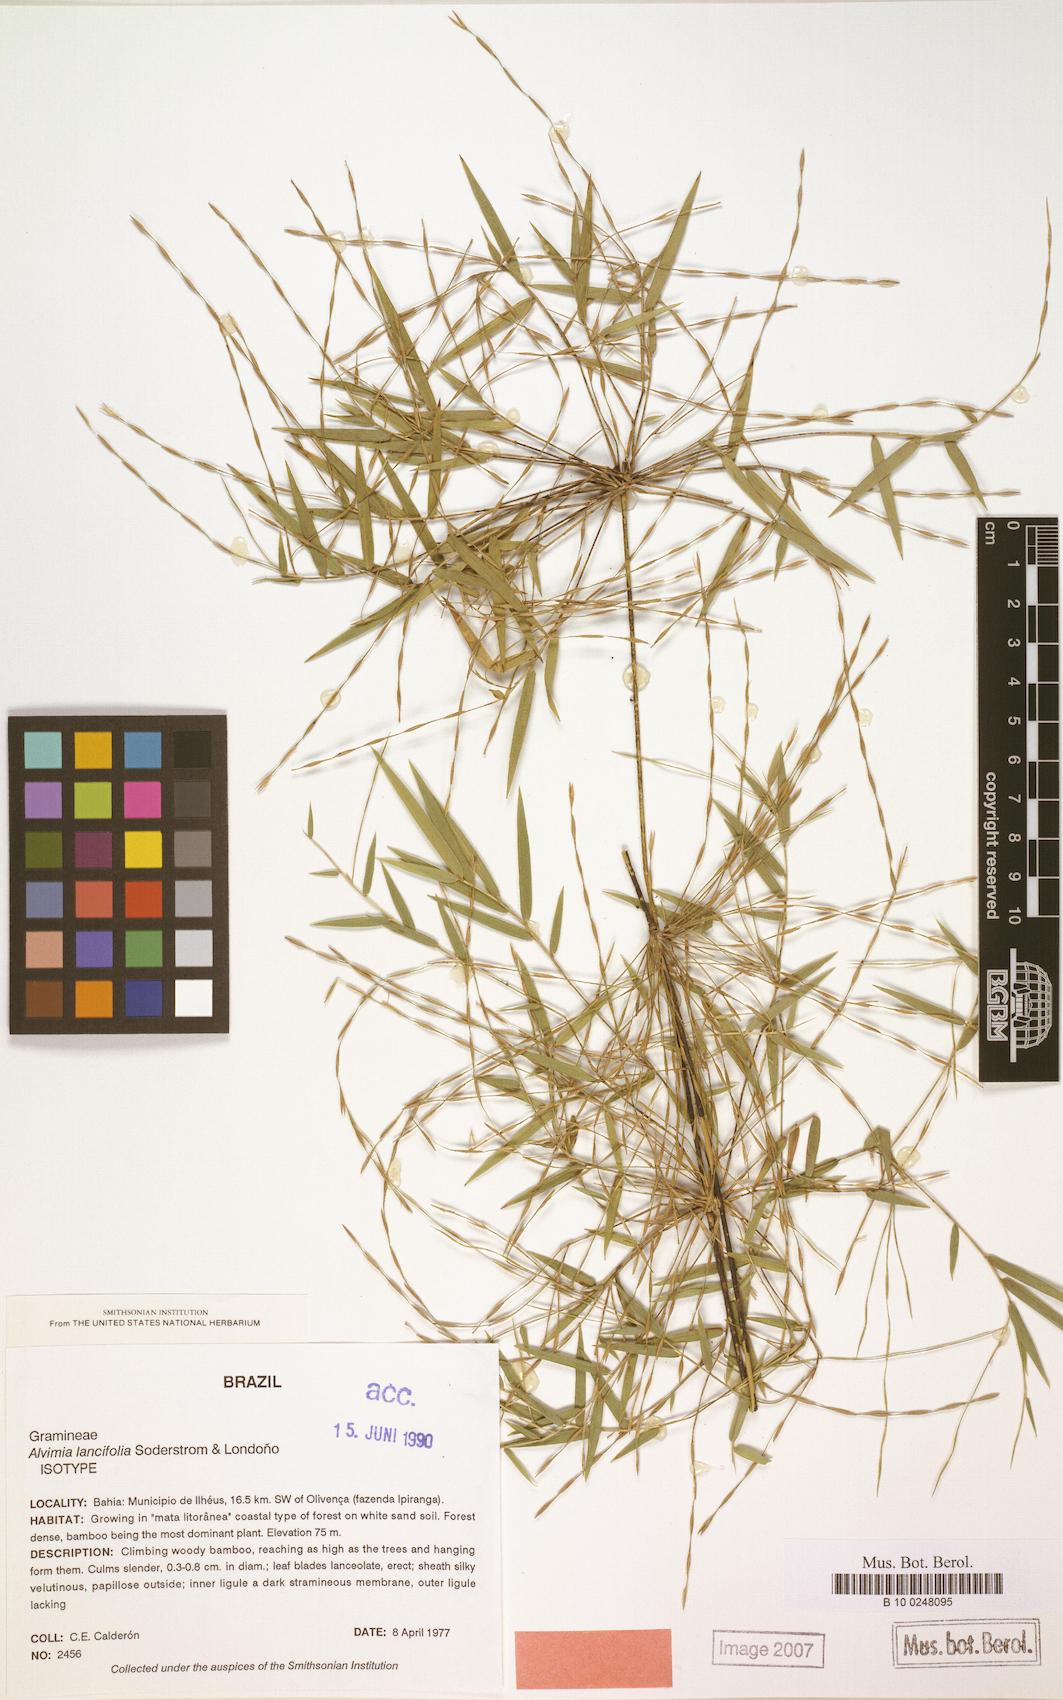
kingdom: Plantae
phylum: Tracheophyta
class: Liliopsida
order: Poales
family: Poaceae
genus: Alvimia
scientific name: Alvimia lancifolia
